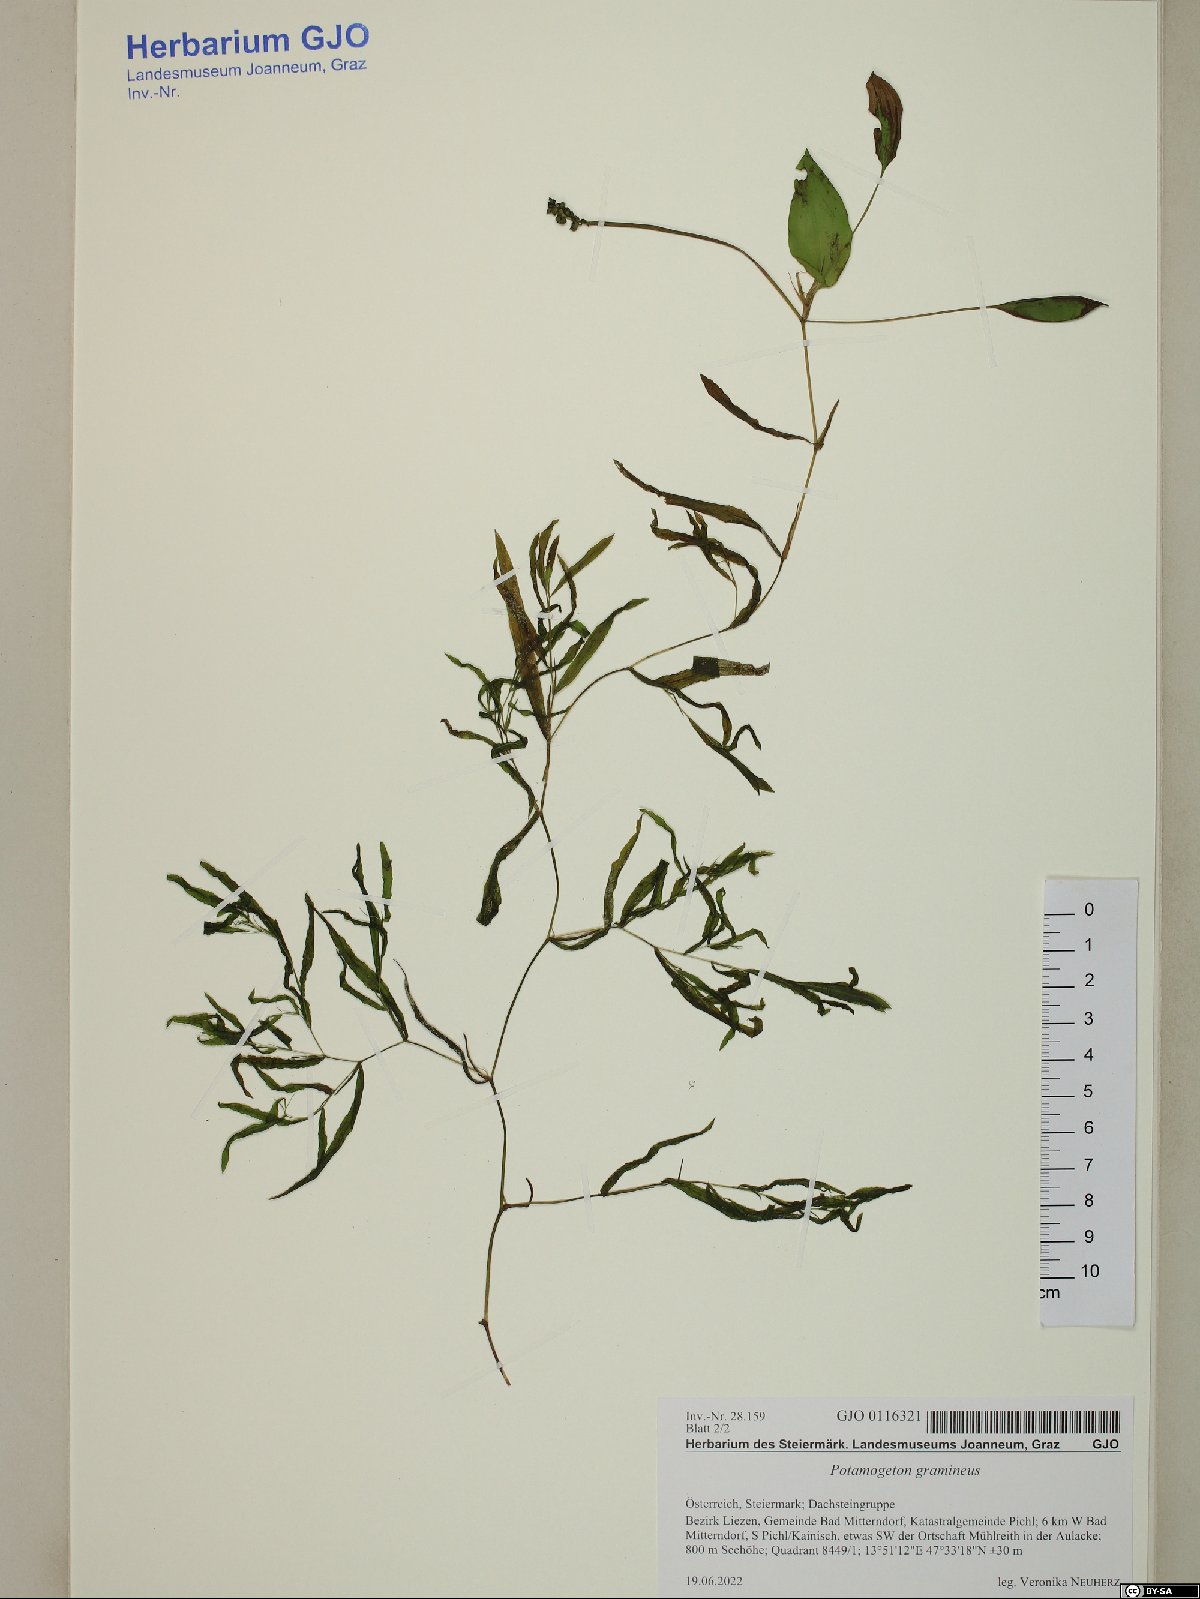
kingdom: Plantae
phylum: Tracheophyta
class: Liliopsida
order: Alismatales
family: Potamogetonaceae
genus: Potamogeton
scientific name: Potamogeton gramineus
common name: Various-leaved pondweed
